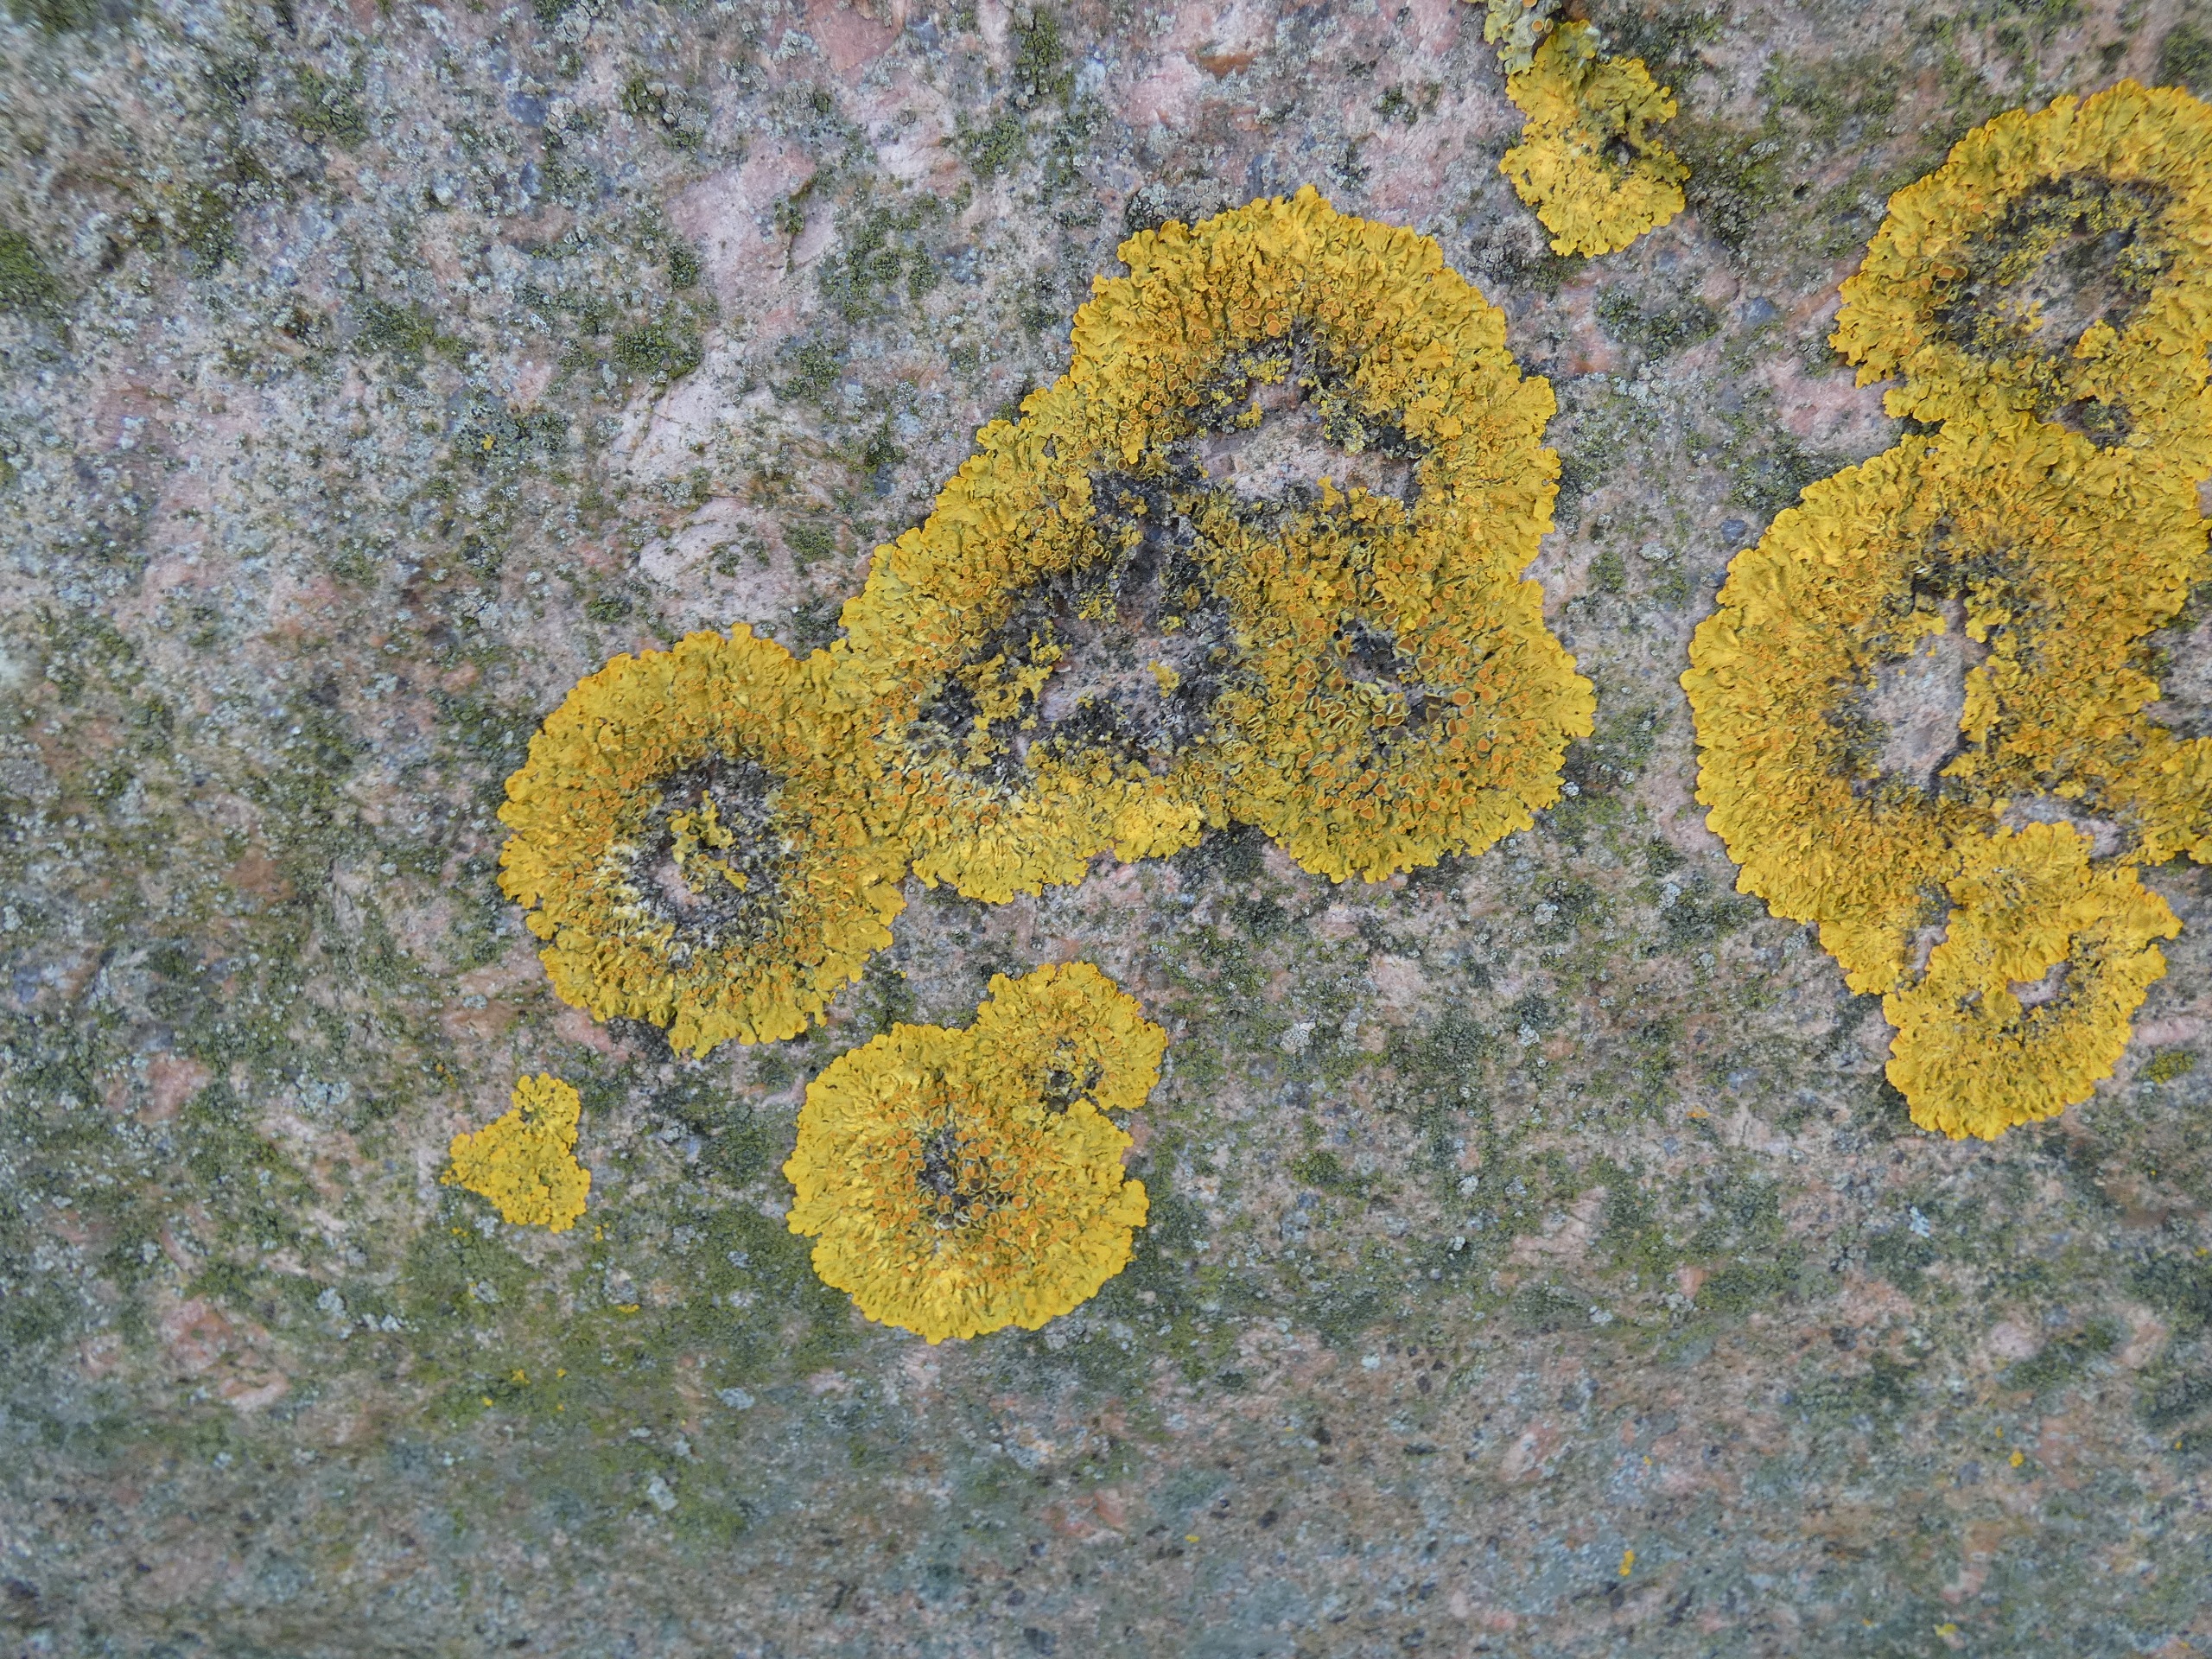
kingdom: Fungi
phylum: Ascomycota
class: Lecanoromycetes
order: Teloschistales
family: Teloschistaceae
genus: Xanthoria
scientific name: Xanthoria parietina
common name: Almindelig væggelav
